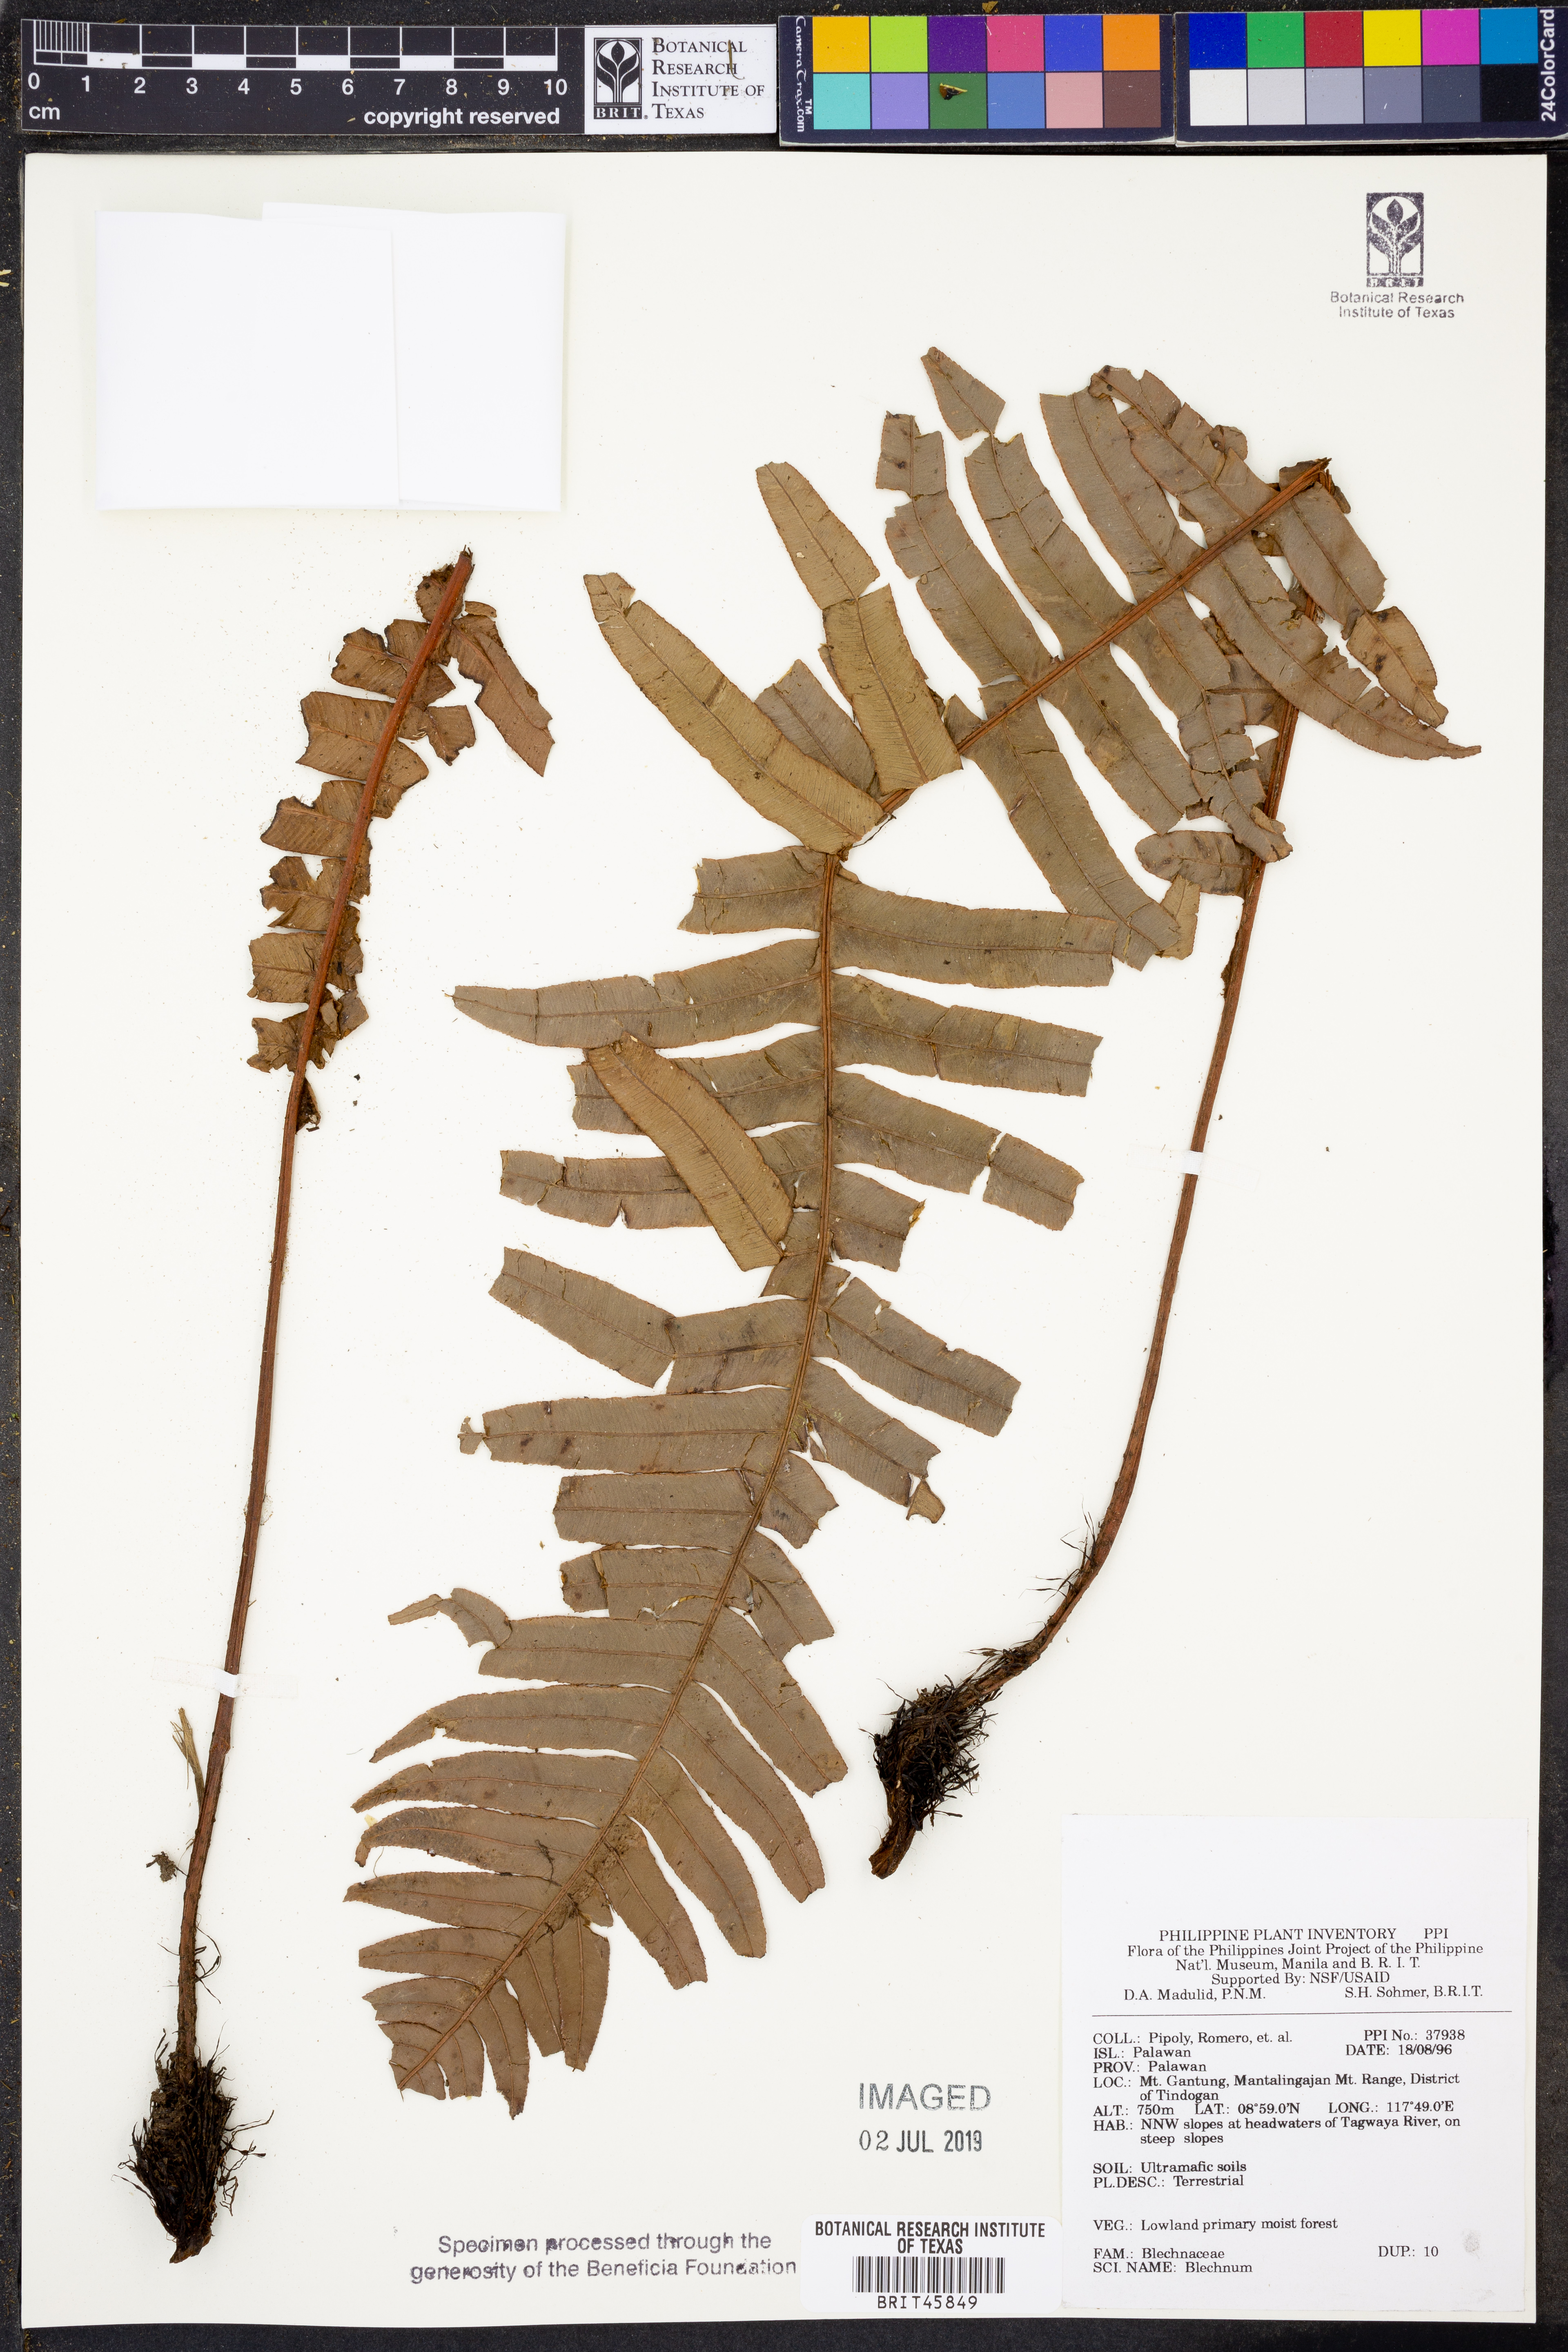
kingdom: Plantae
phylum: Tracheophyta
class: Polypodiopsida
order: Polypodiales
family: Blechnaceae
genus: Blechnum
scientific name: Blechnum
